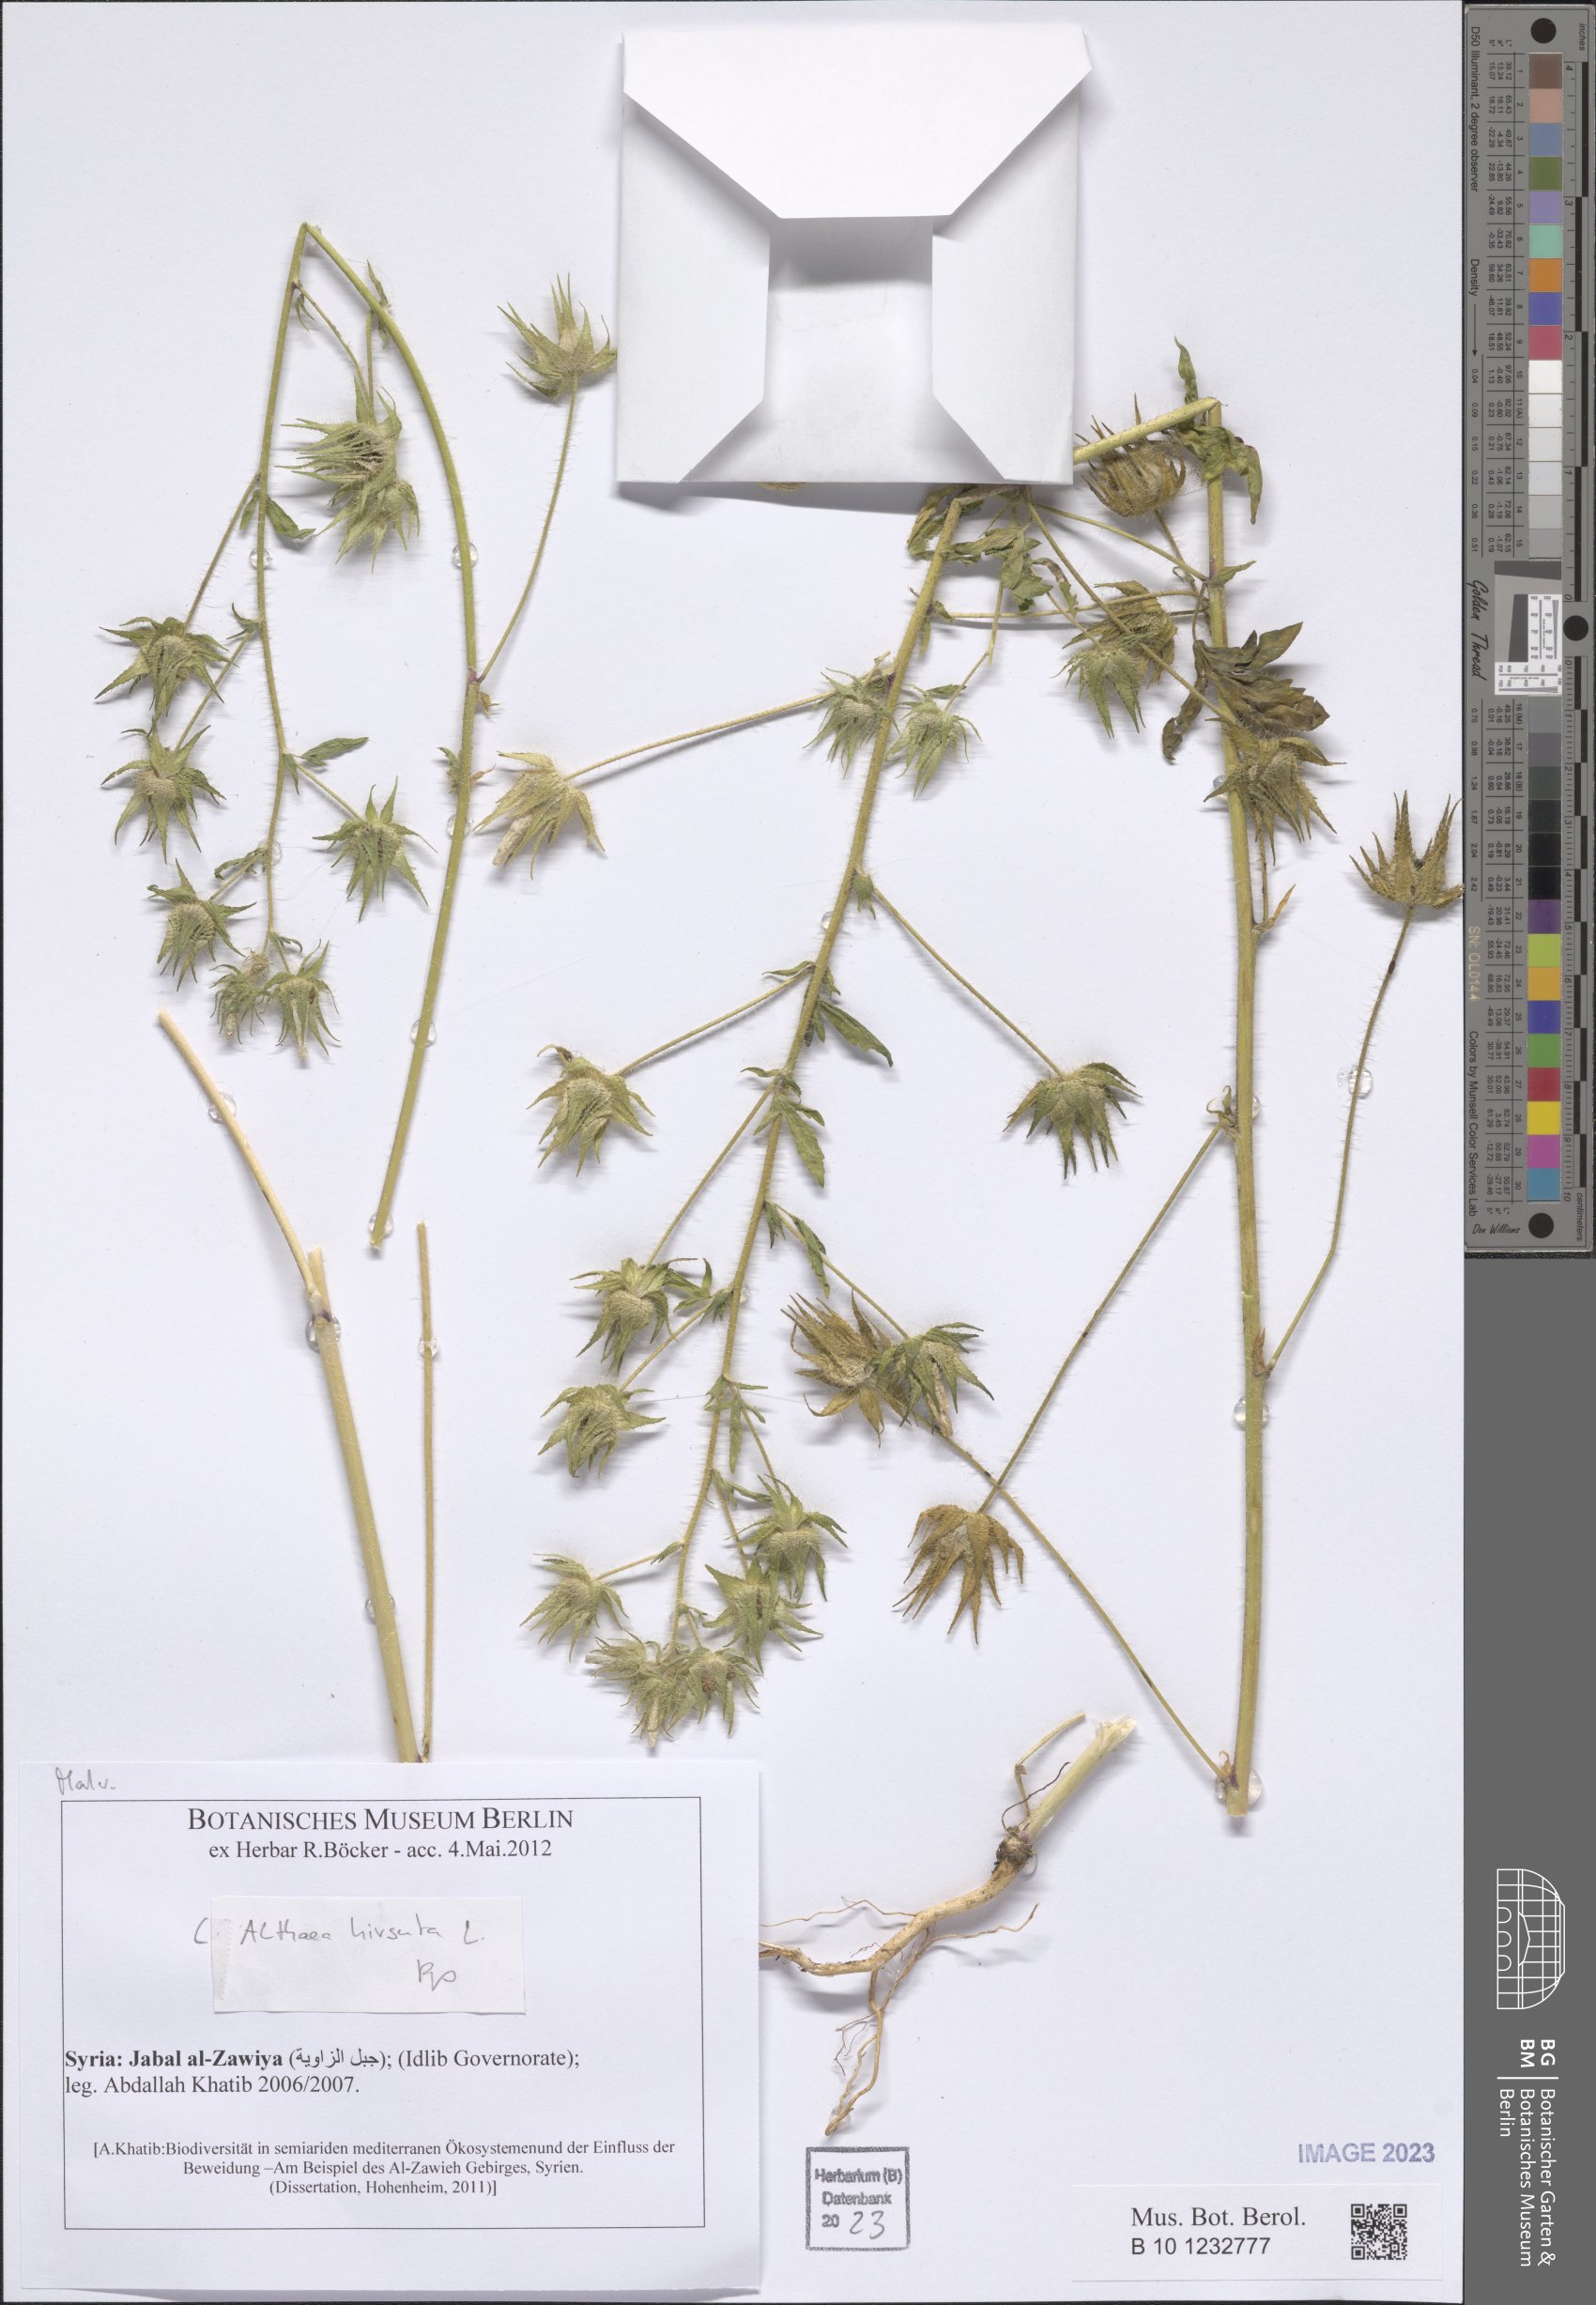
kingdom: Plantae
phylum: Tracheophyta
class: Magnoliopsida
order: Malvales
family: Malvaceae
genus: Althaea
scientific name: Althaea hirsuta
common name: Rough marsh-mallow
